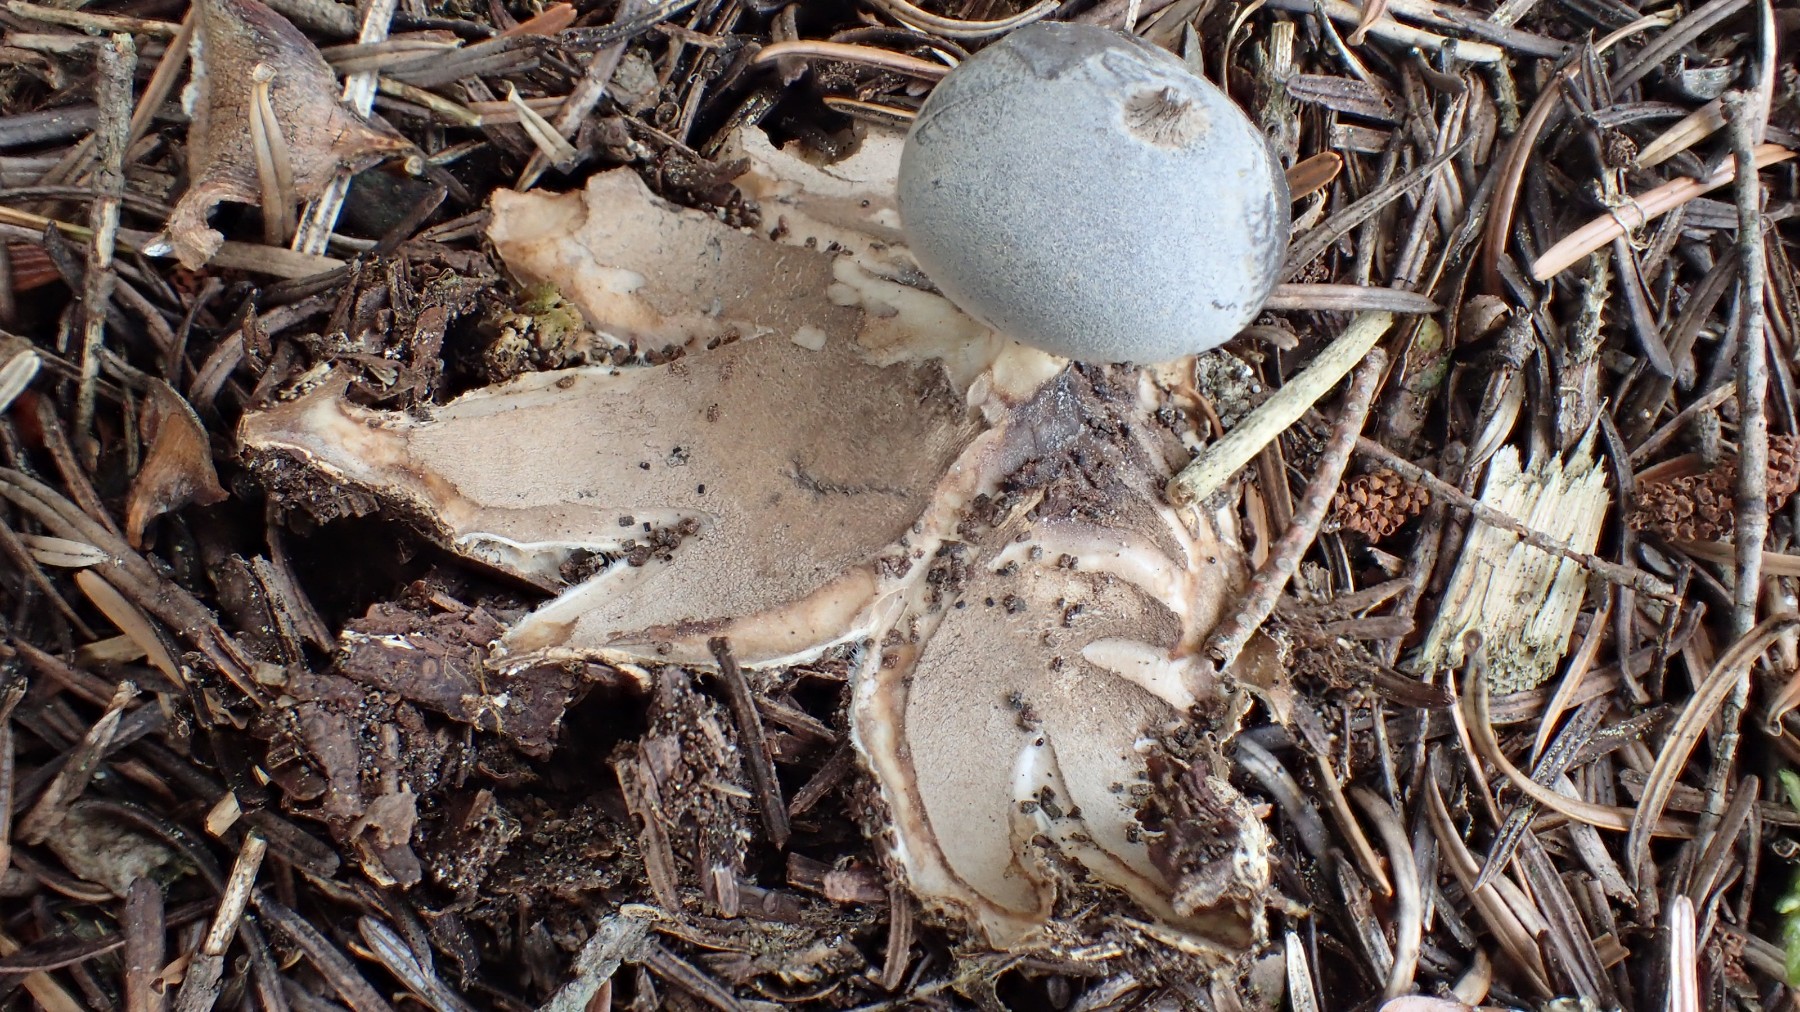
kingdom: Fungi
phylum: Basidiomycota
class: Agaricomycetes
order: Geastrales
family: Geastraceae
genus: Geastrum
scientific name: Geastrum pectinatum
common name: stilket stjernebold
